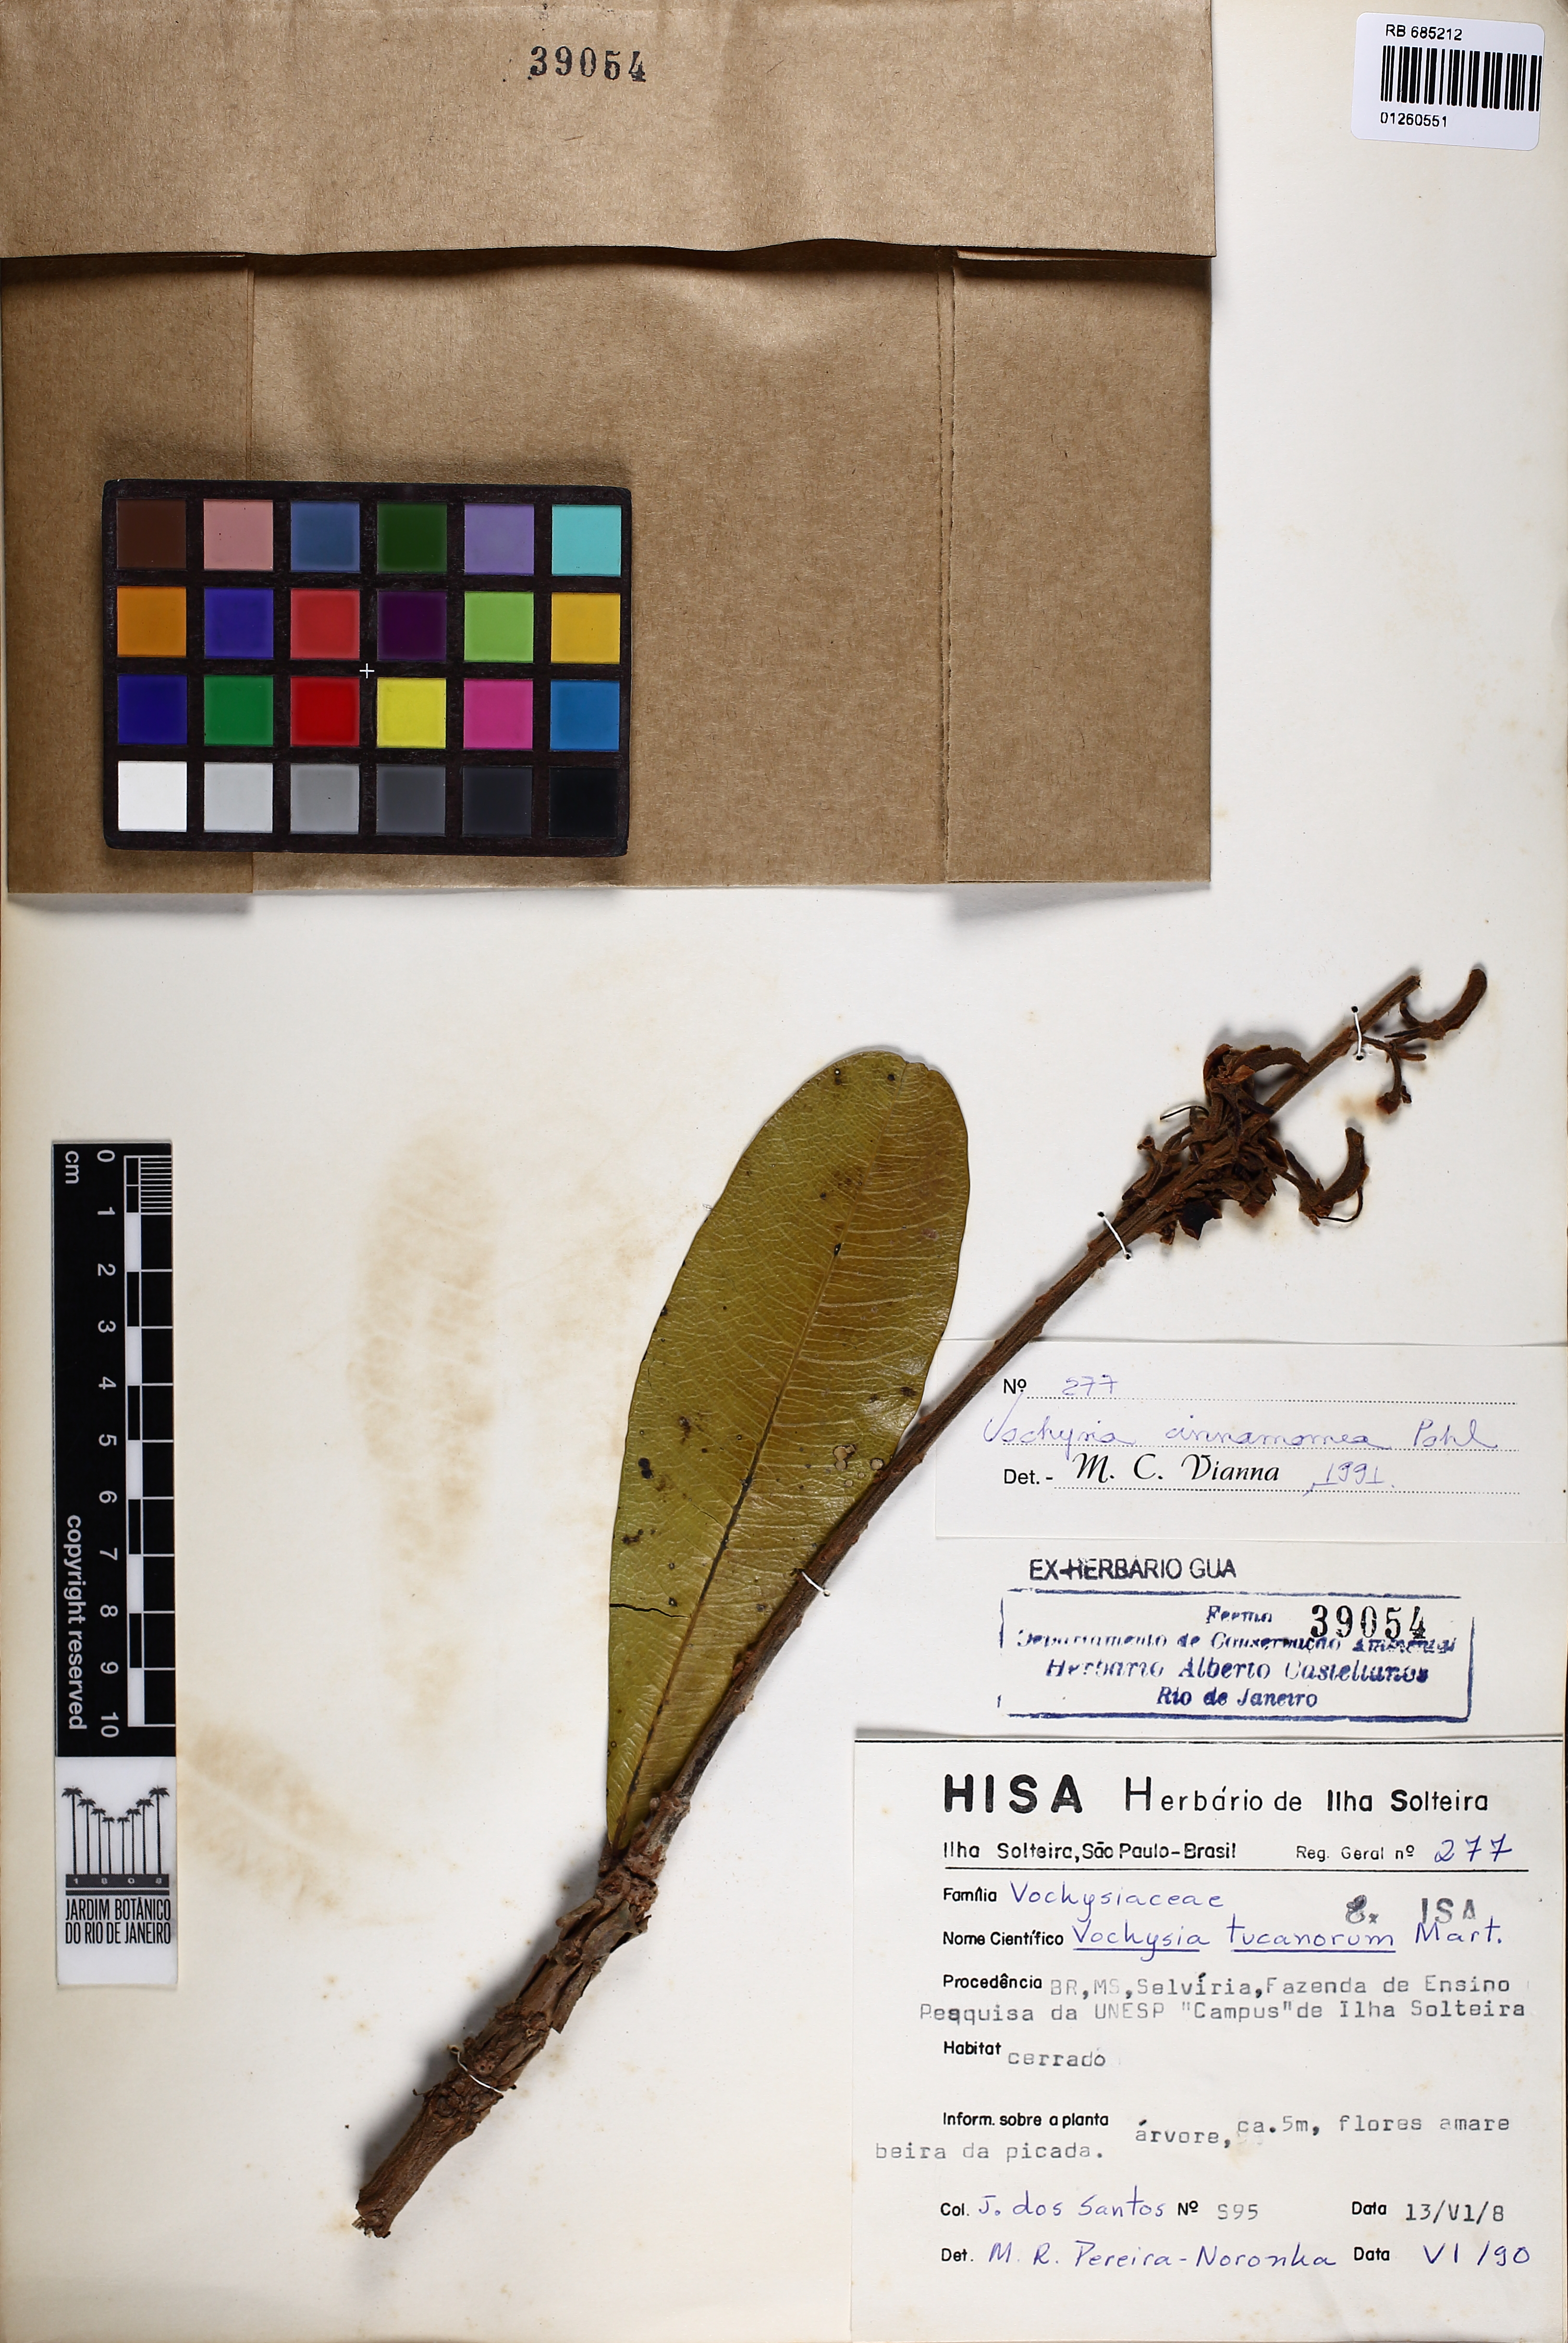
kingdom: Plantae
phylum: Tracheophyta
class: Magnoliopsida
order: Myrtales
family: Vochysiaceae
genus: Vochysia
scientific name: Vochysia cinnamomea
